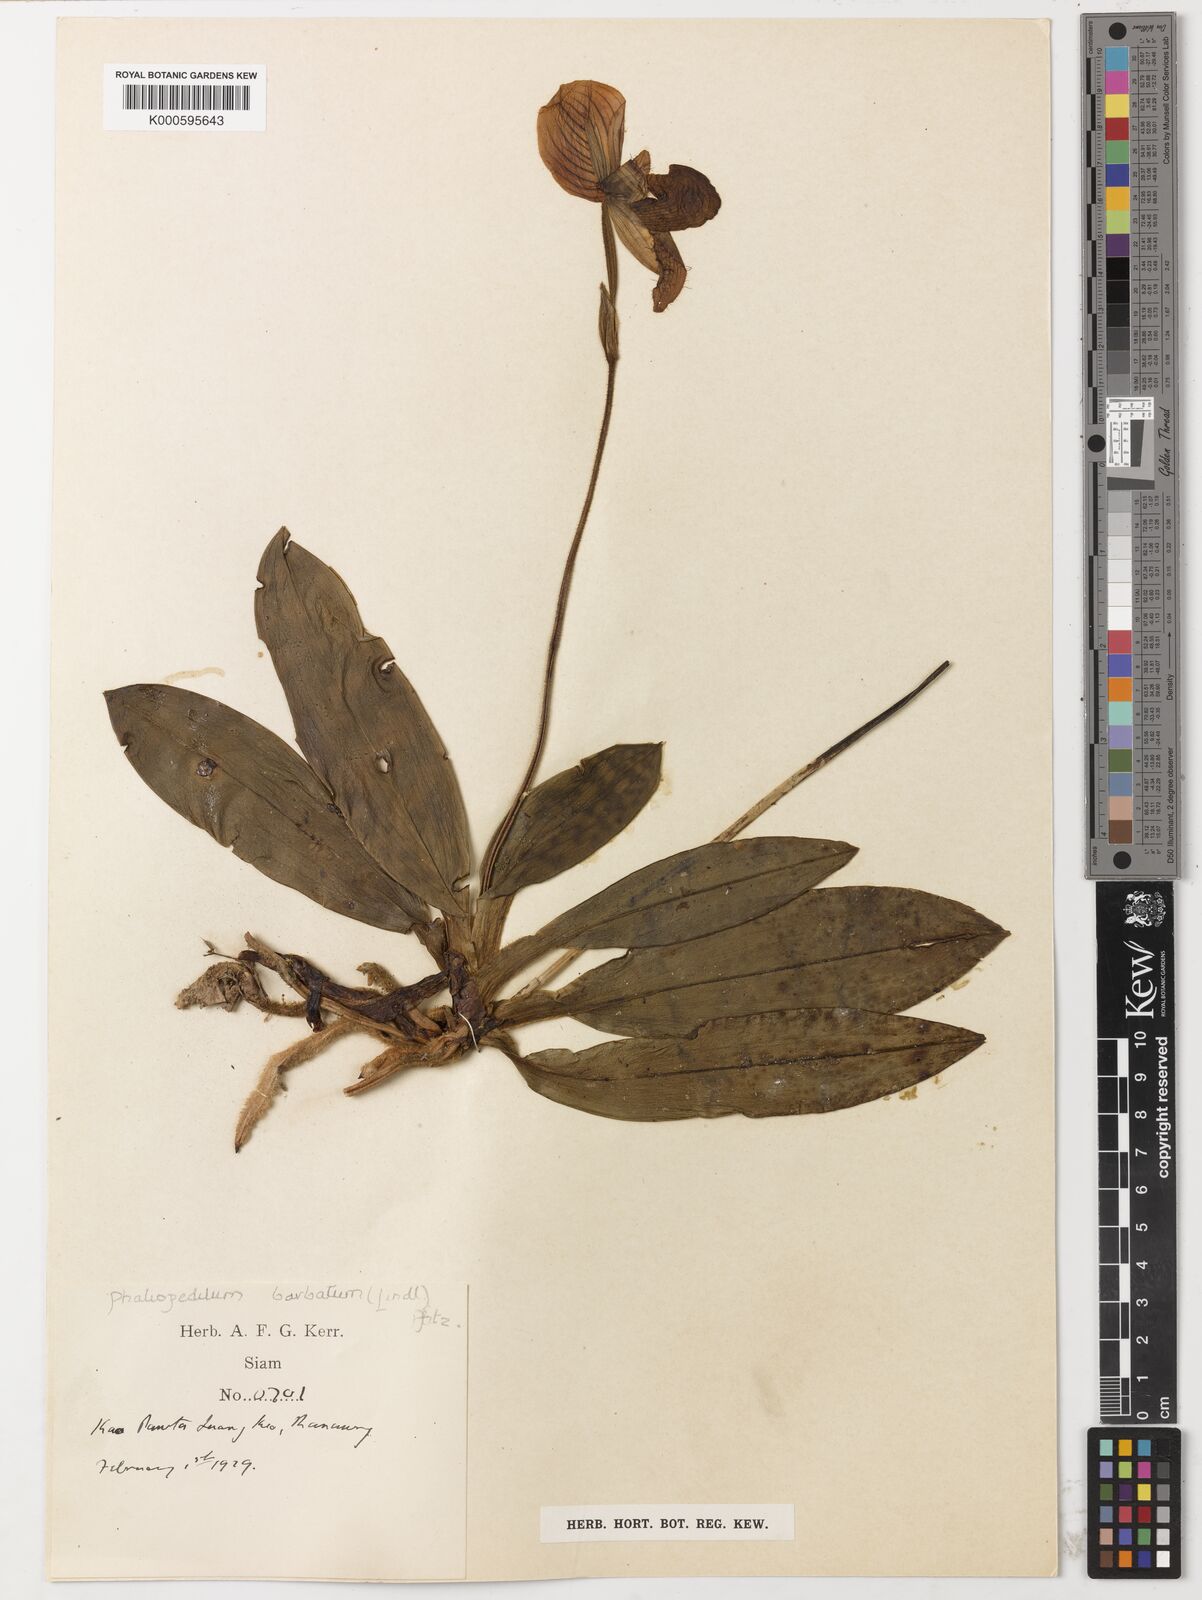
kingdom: Plantae
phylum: Tracheophyta
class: Liliopsida
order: Asparagales
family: Orchidaceae
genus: Paphiopedilum
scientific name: Paphiopedilum callosum
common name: Callus paphiopedilum
